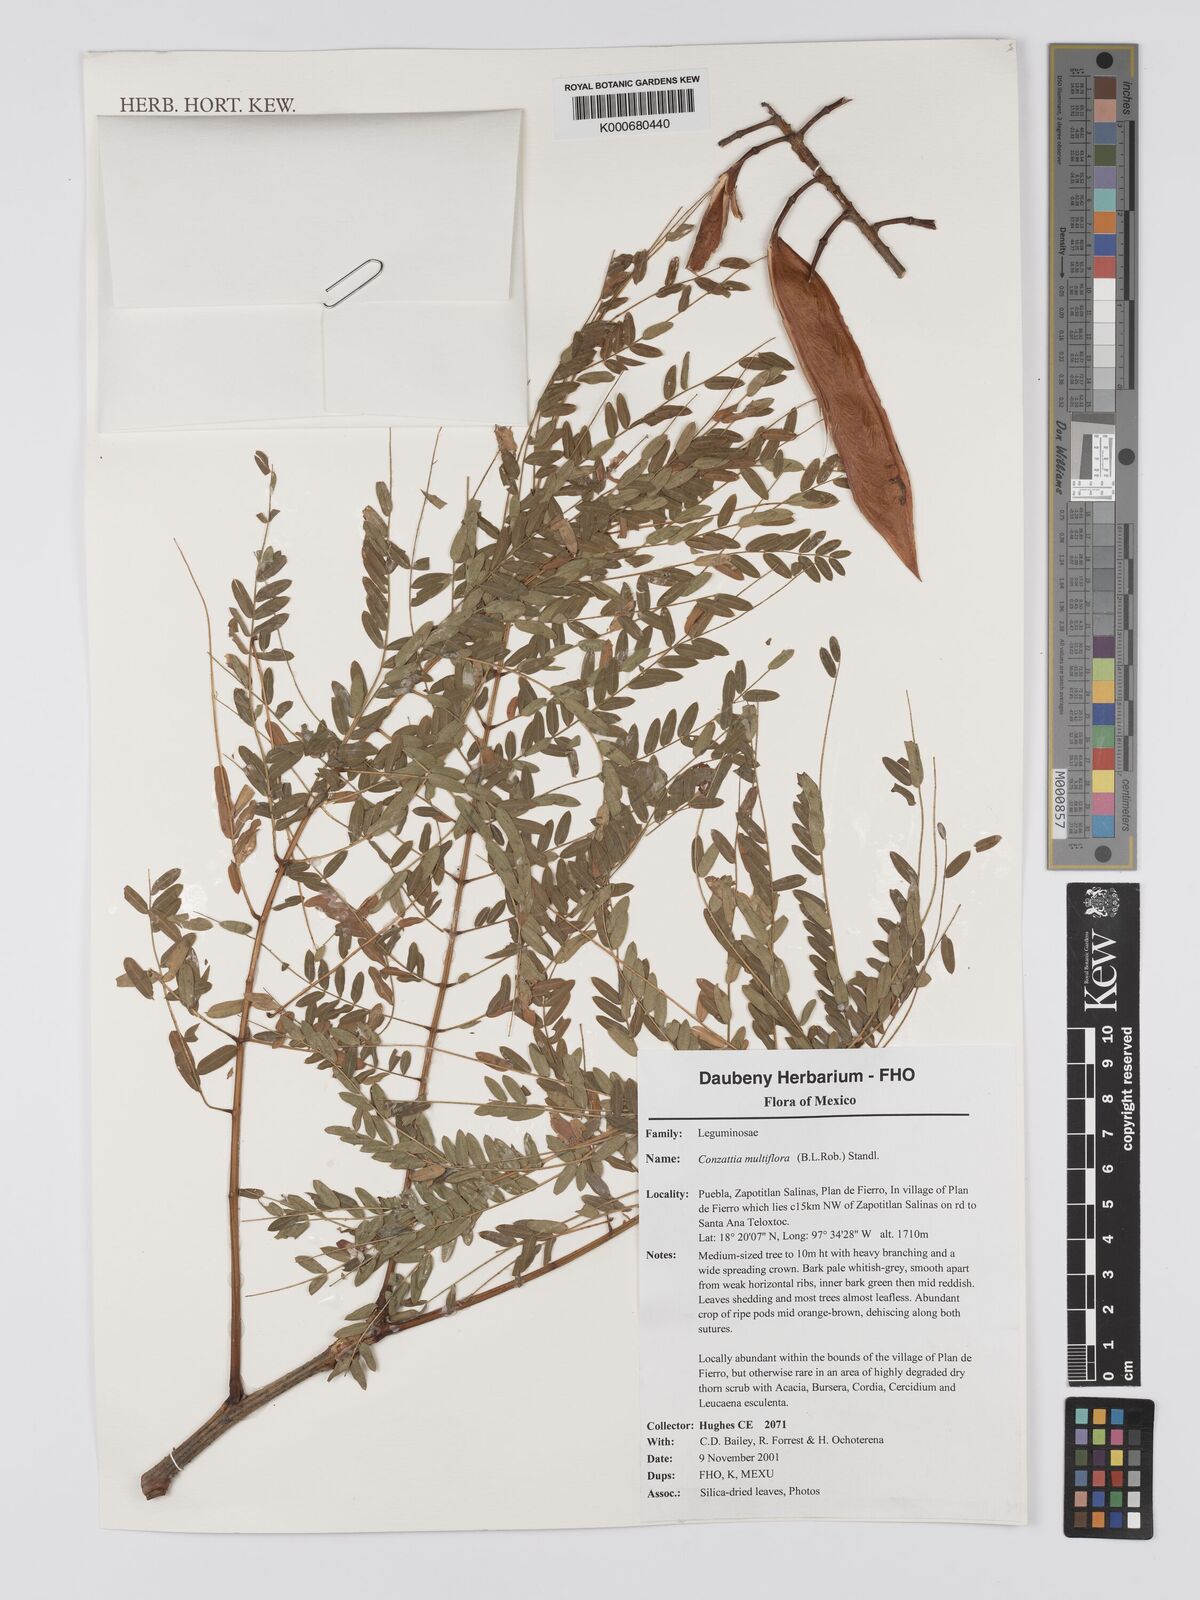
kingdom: Plantae
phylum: Tracheophyta
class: Magnoliopsida
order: Fabales
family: Fabaceae
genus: Conzattia
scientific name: Conzattia multiflora
